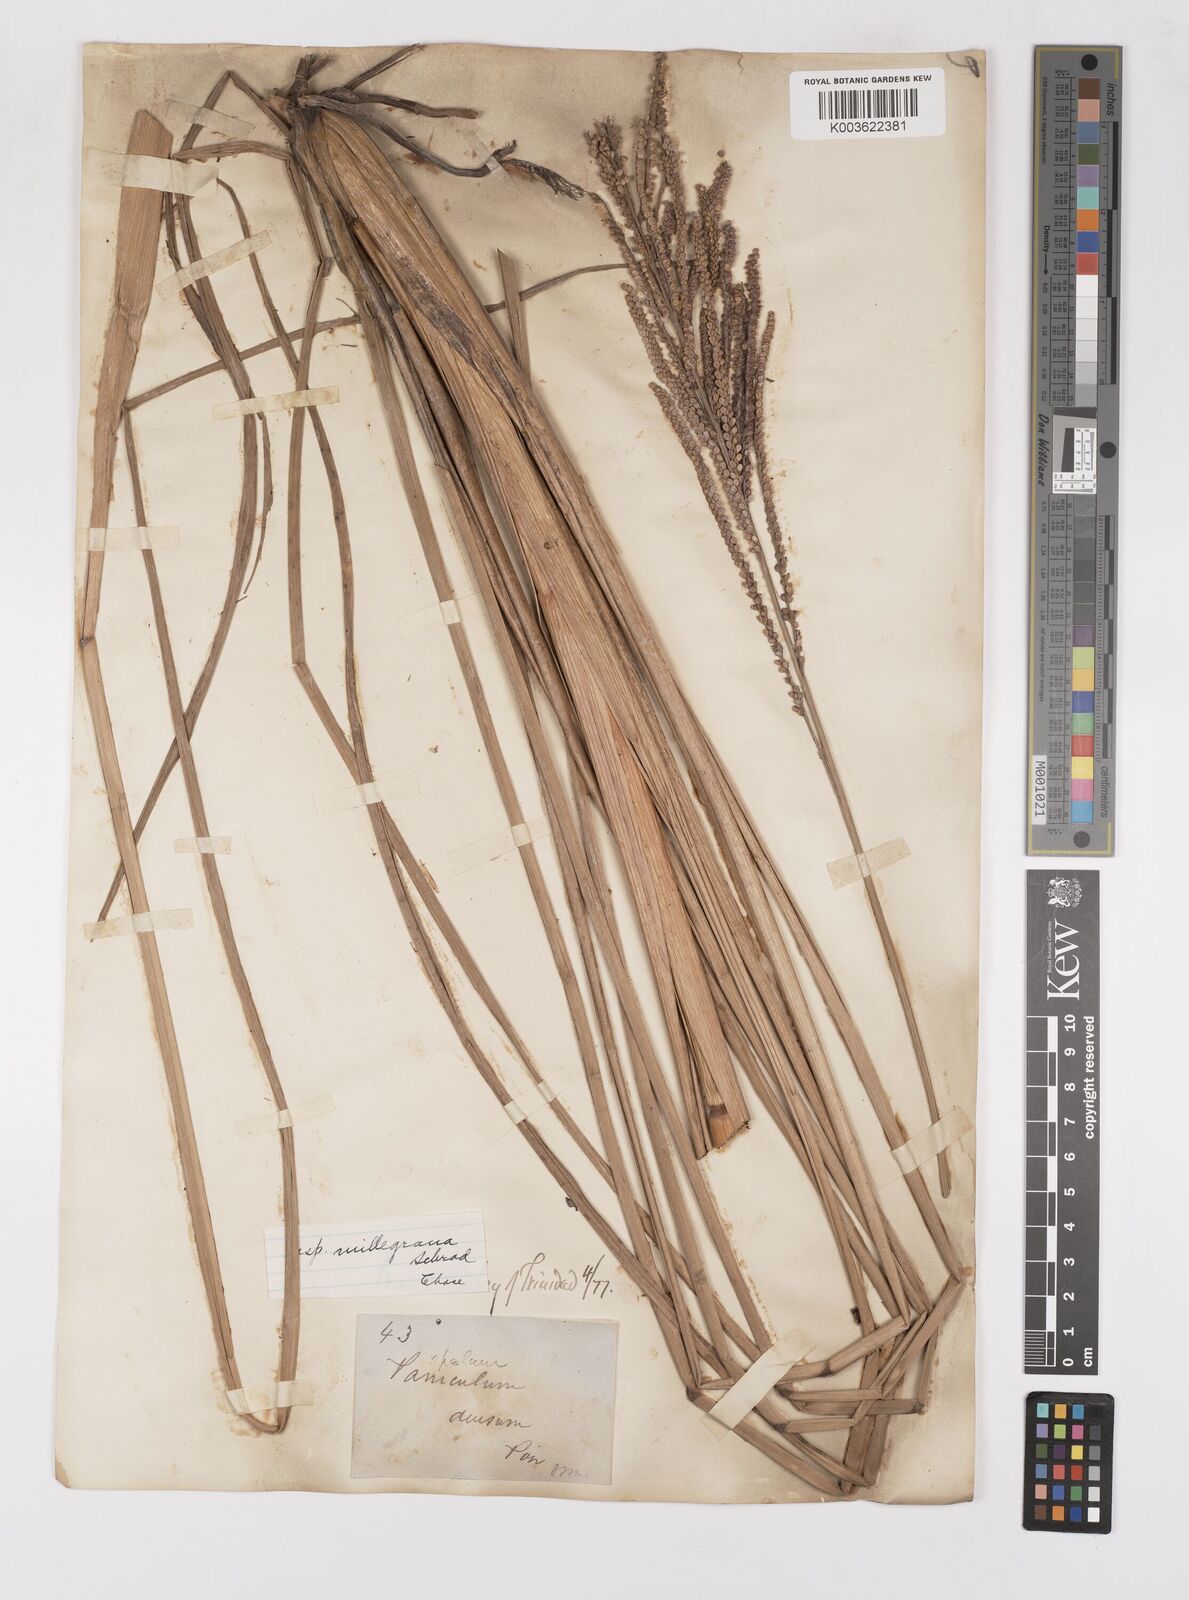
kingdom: Plantae
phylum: Tracheophyta
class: Liliopsida
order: Poales
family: Poaceae
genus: Paspalum
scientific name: Paspalum millegranum
